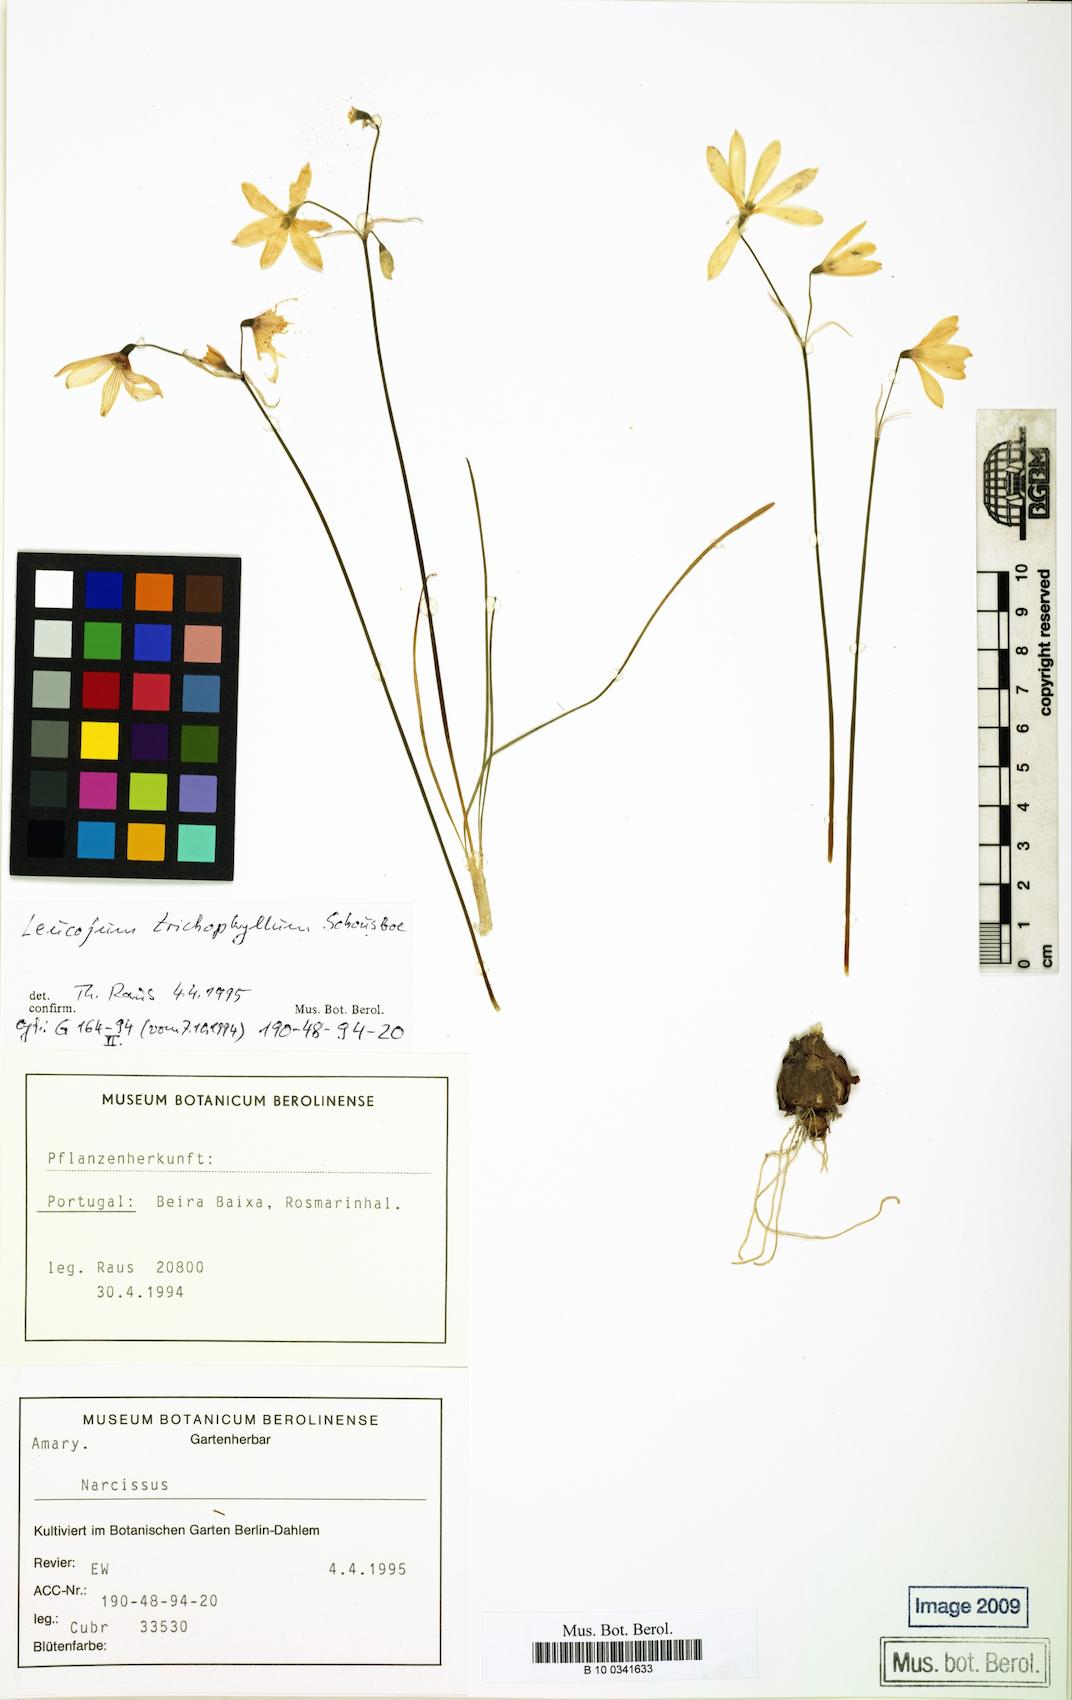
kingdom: Plantae
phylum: Tracheophyta
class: Liliopsida
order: Asparagales
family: Amaryllidaceae
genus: Acis
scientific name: Acis trichophylla
